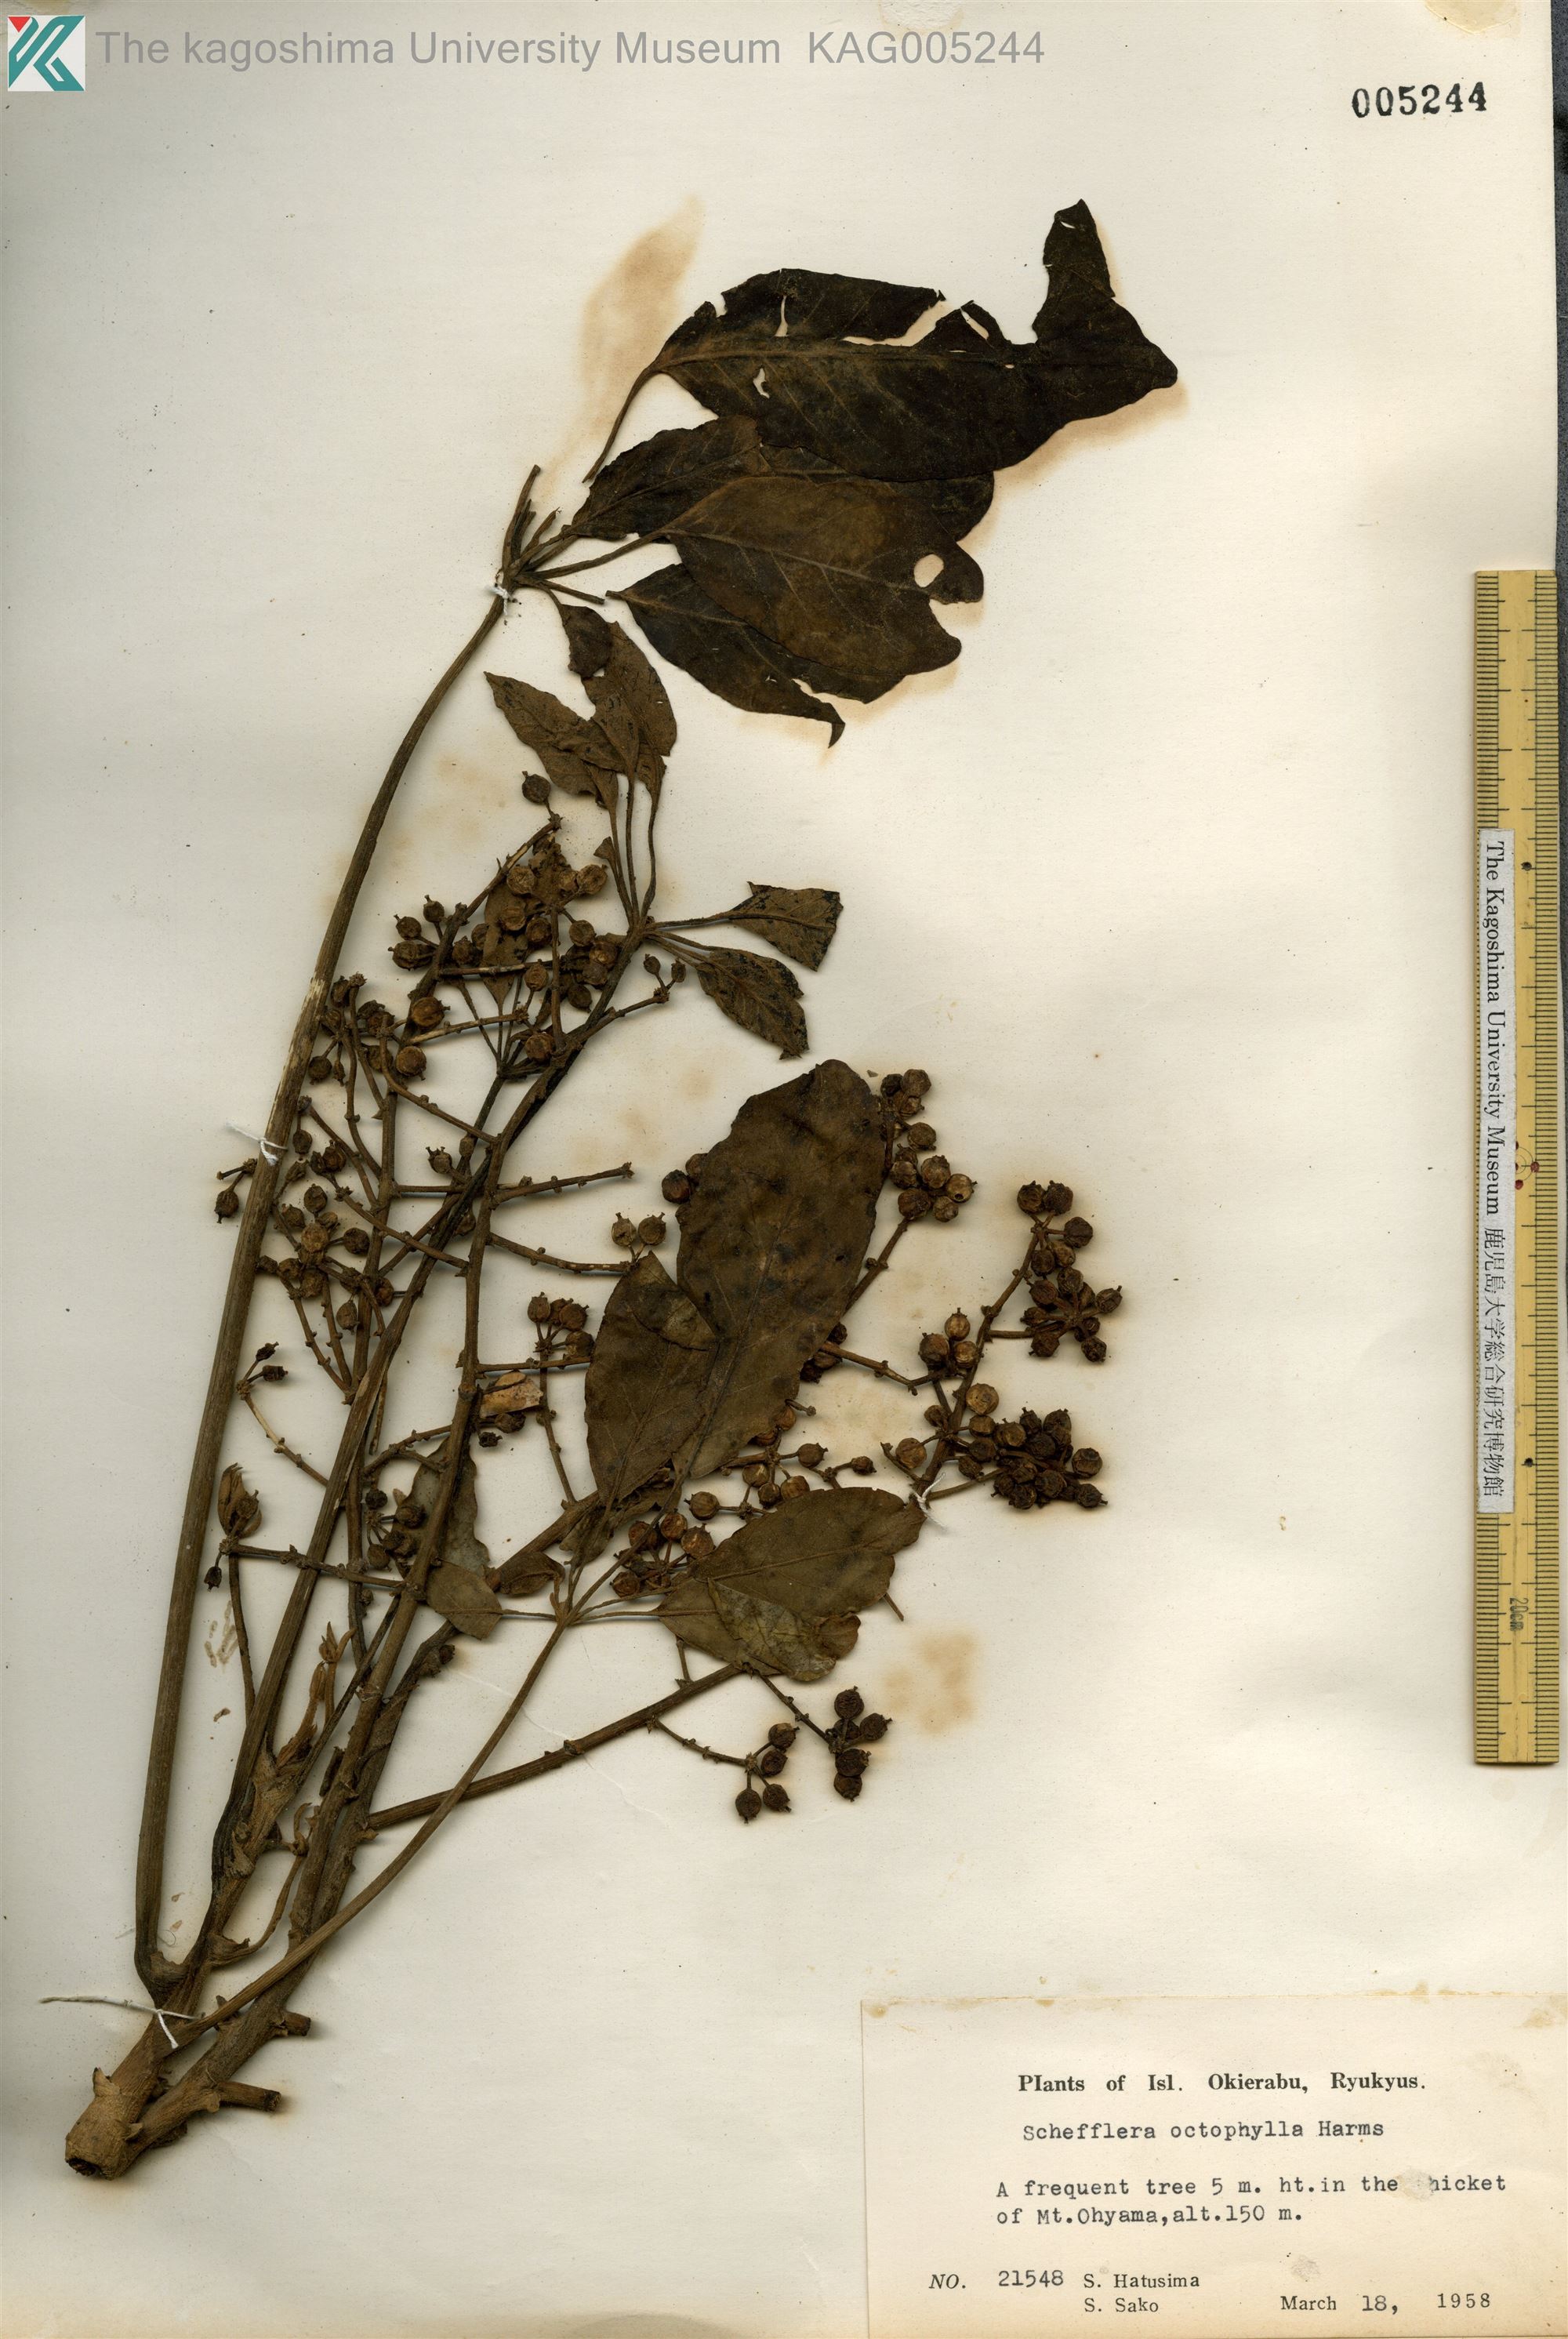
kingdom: Plantae
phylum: Tracheophyta
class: Magnoliopsida
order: Apiales
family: Araliaceae
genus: Heptapleurum
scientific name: Heptapleurum heptaphyllum
